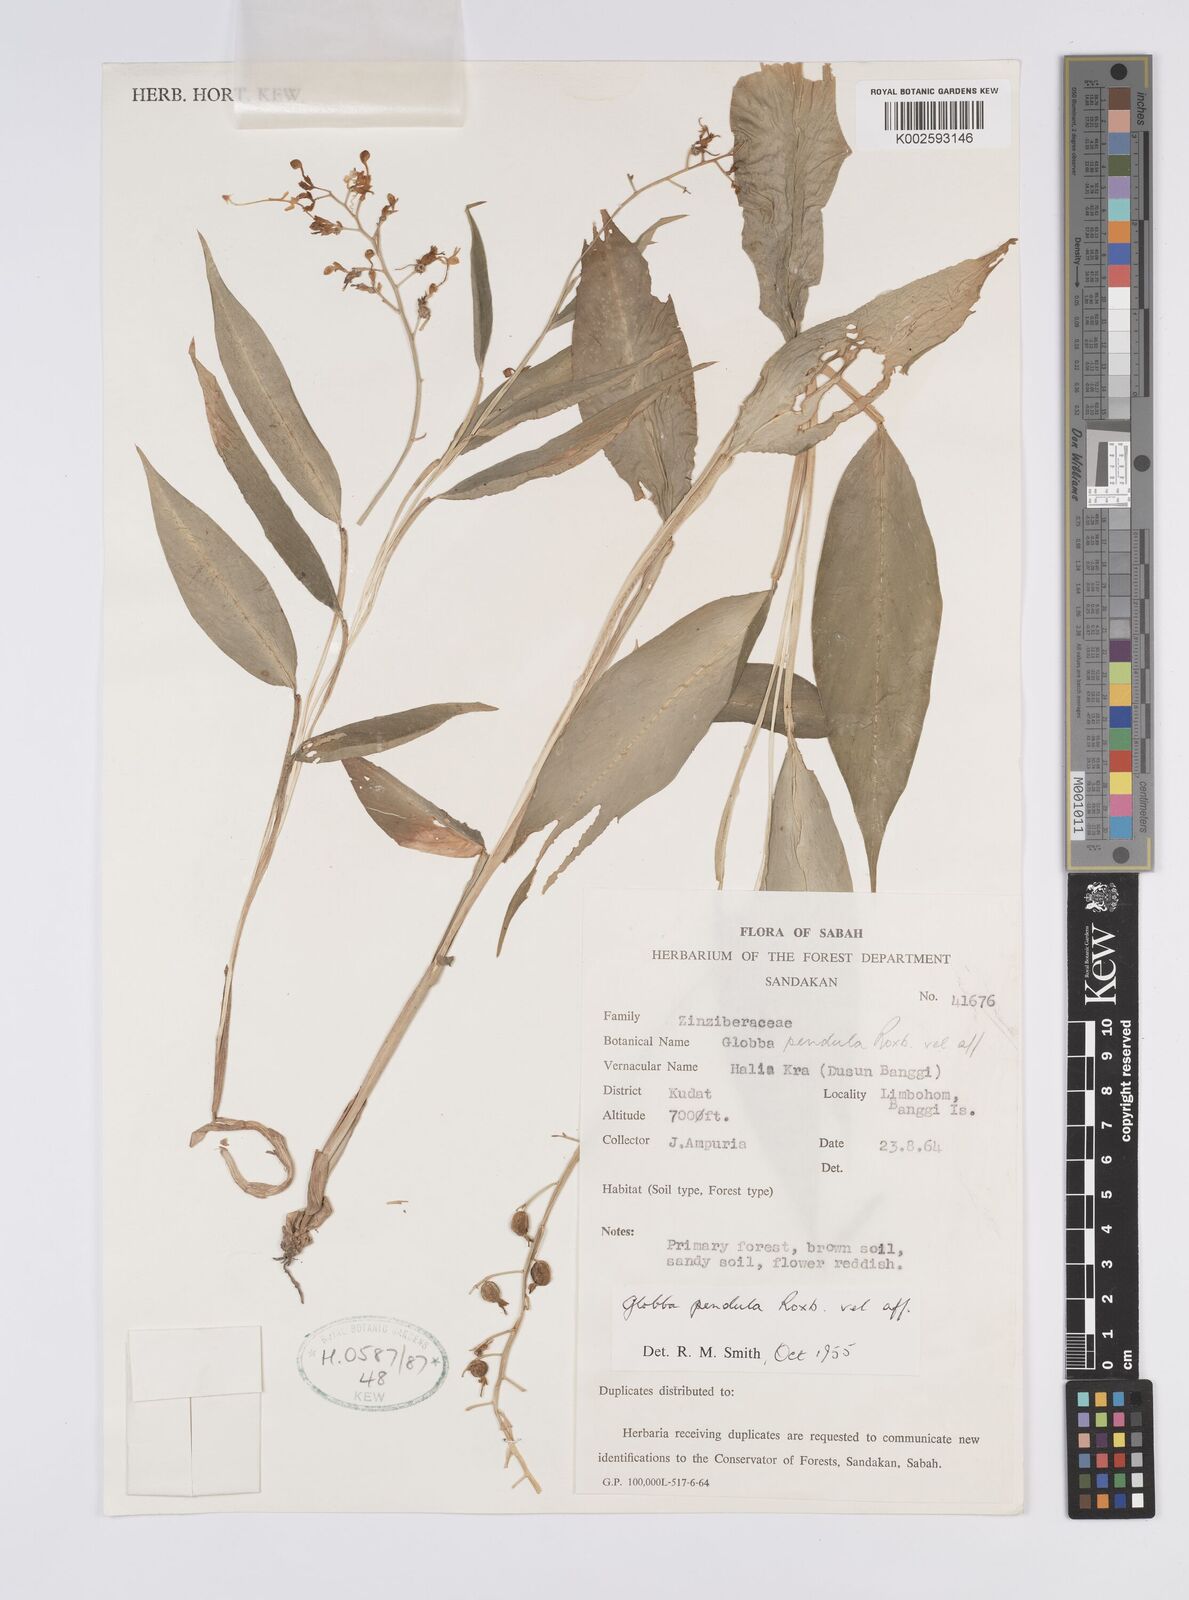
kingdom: Plantae
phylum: Tracheophyta
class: Liliopsida
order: Zingiberales
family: Zingiberaceae
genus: Globba
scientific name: Globba pendula
